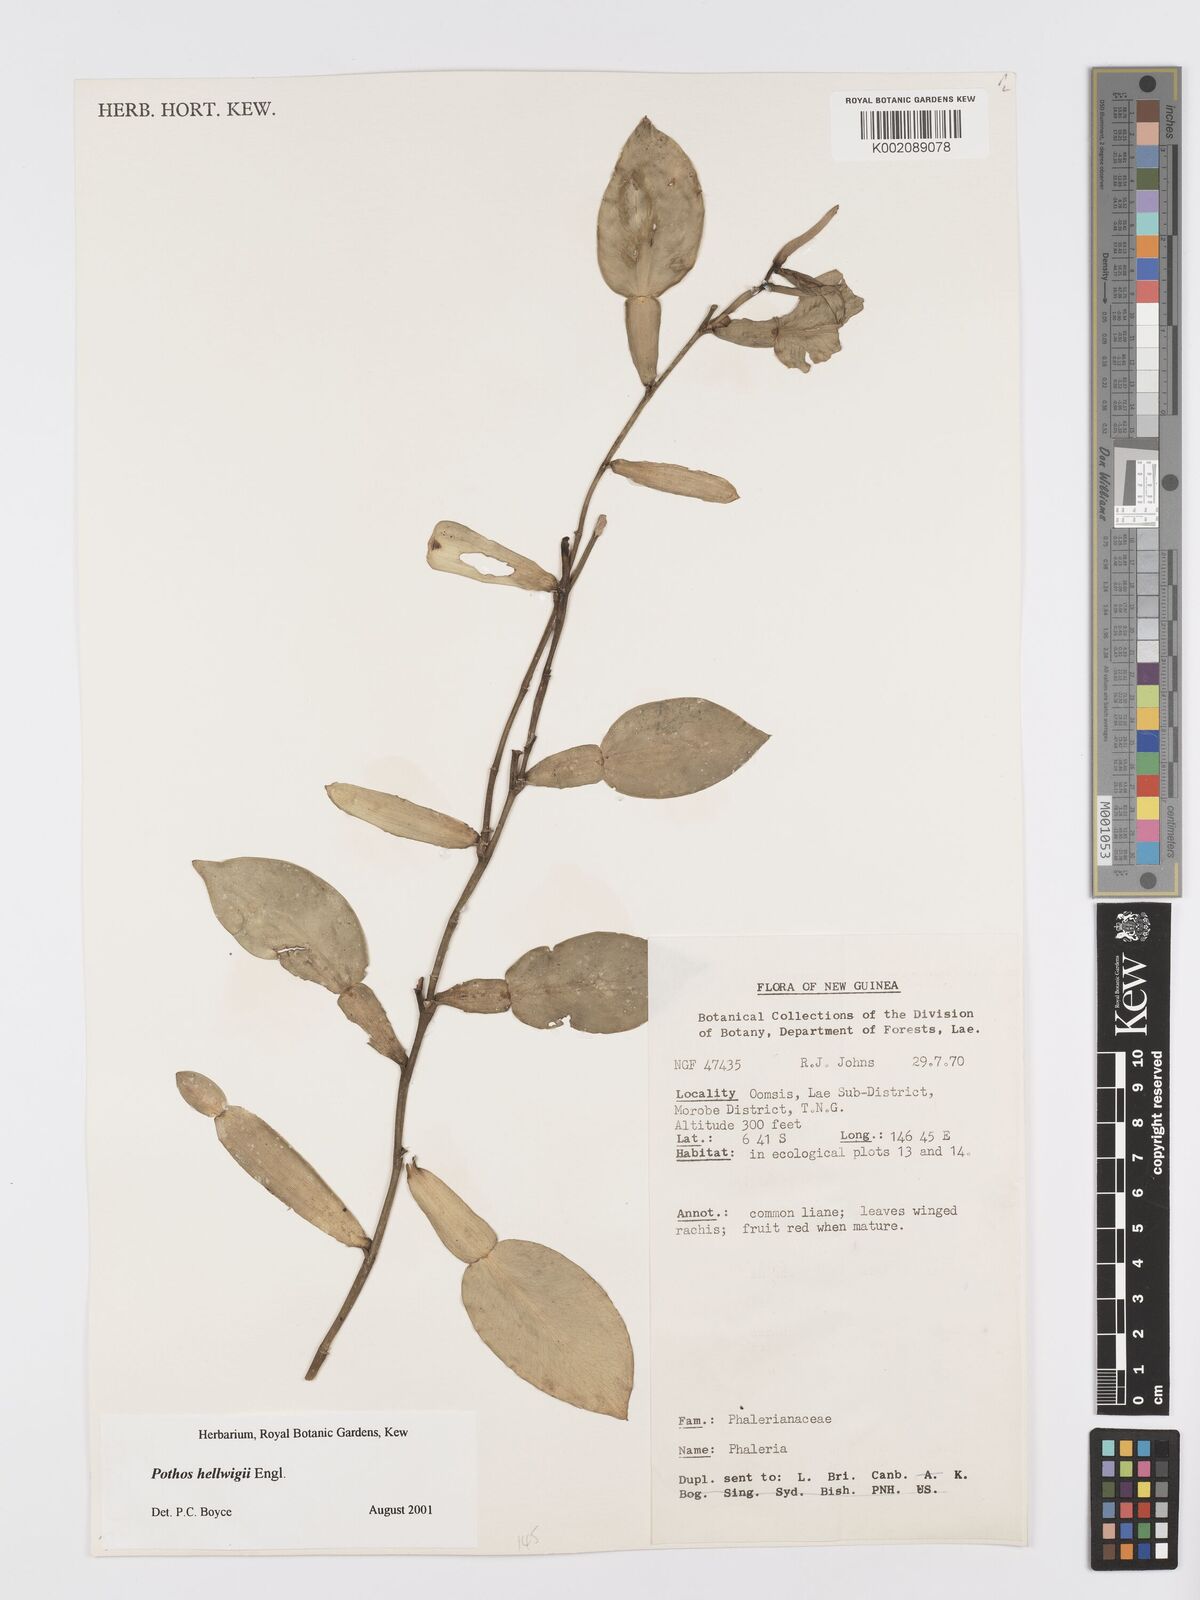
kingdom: Plantae
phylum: Tracheophyta
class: Liliopsida
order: Alismatales
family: Araceae
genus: Pothos
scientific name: Pothos hellwigii
